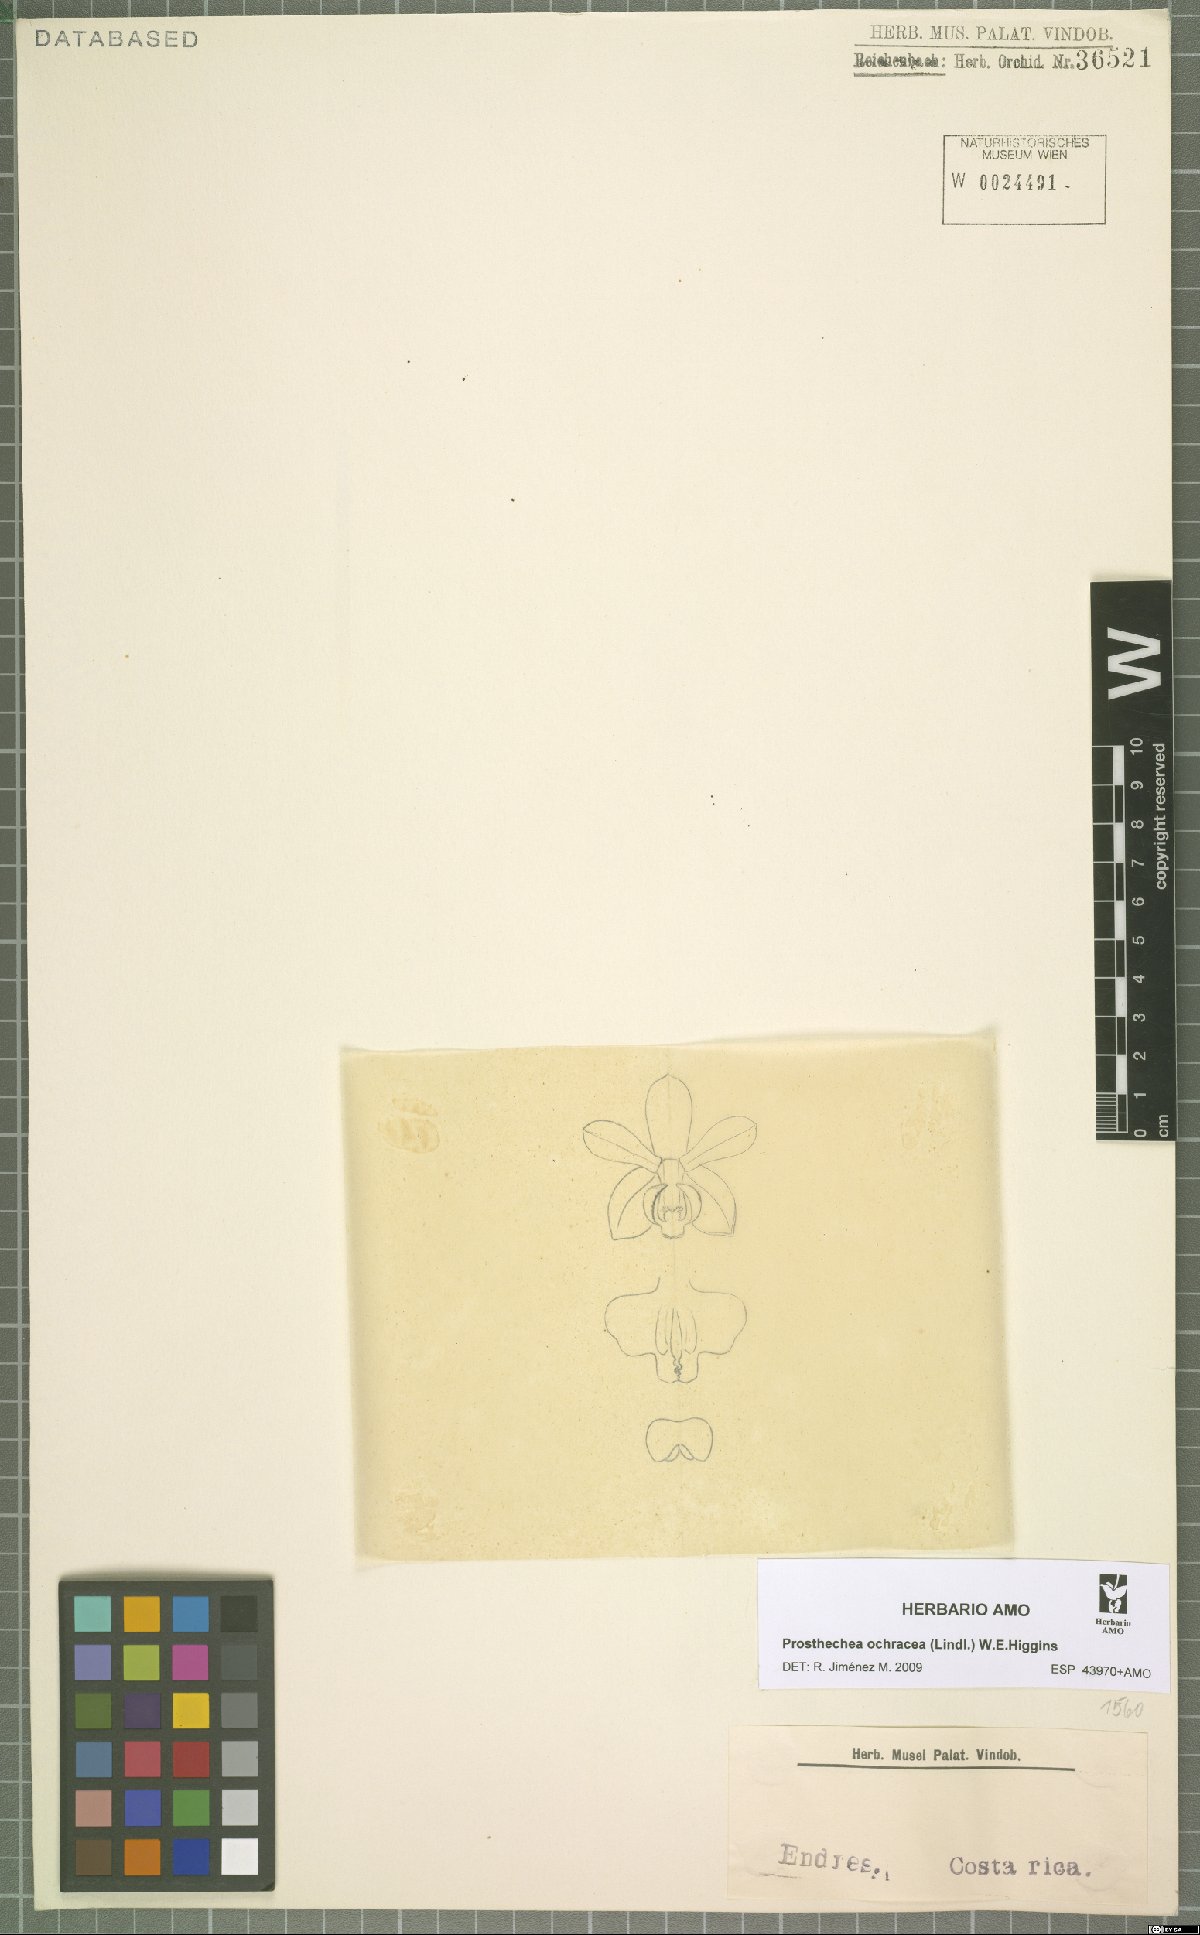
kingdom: Plantae
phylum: Tracheophyta
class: Liliopsida
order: Asparagales
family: Orchidaceae
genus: Prosthechea
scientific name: Prosthechea ochracea
